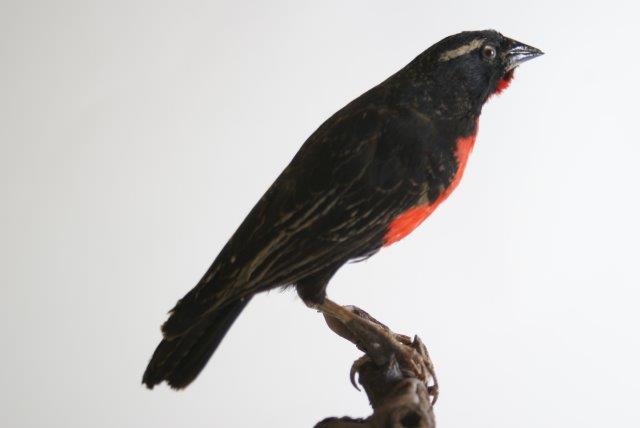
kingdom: Animalia
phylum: Chordata
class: Aves
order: Passeriformes
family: Icteridae
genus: Sturnella
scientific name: Sturnella superciliaris
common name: White-browed blackbird
